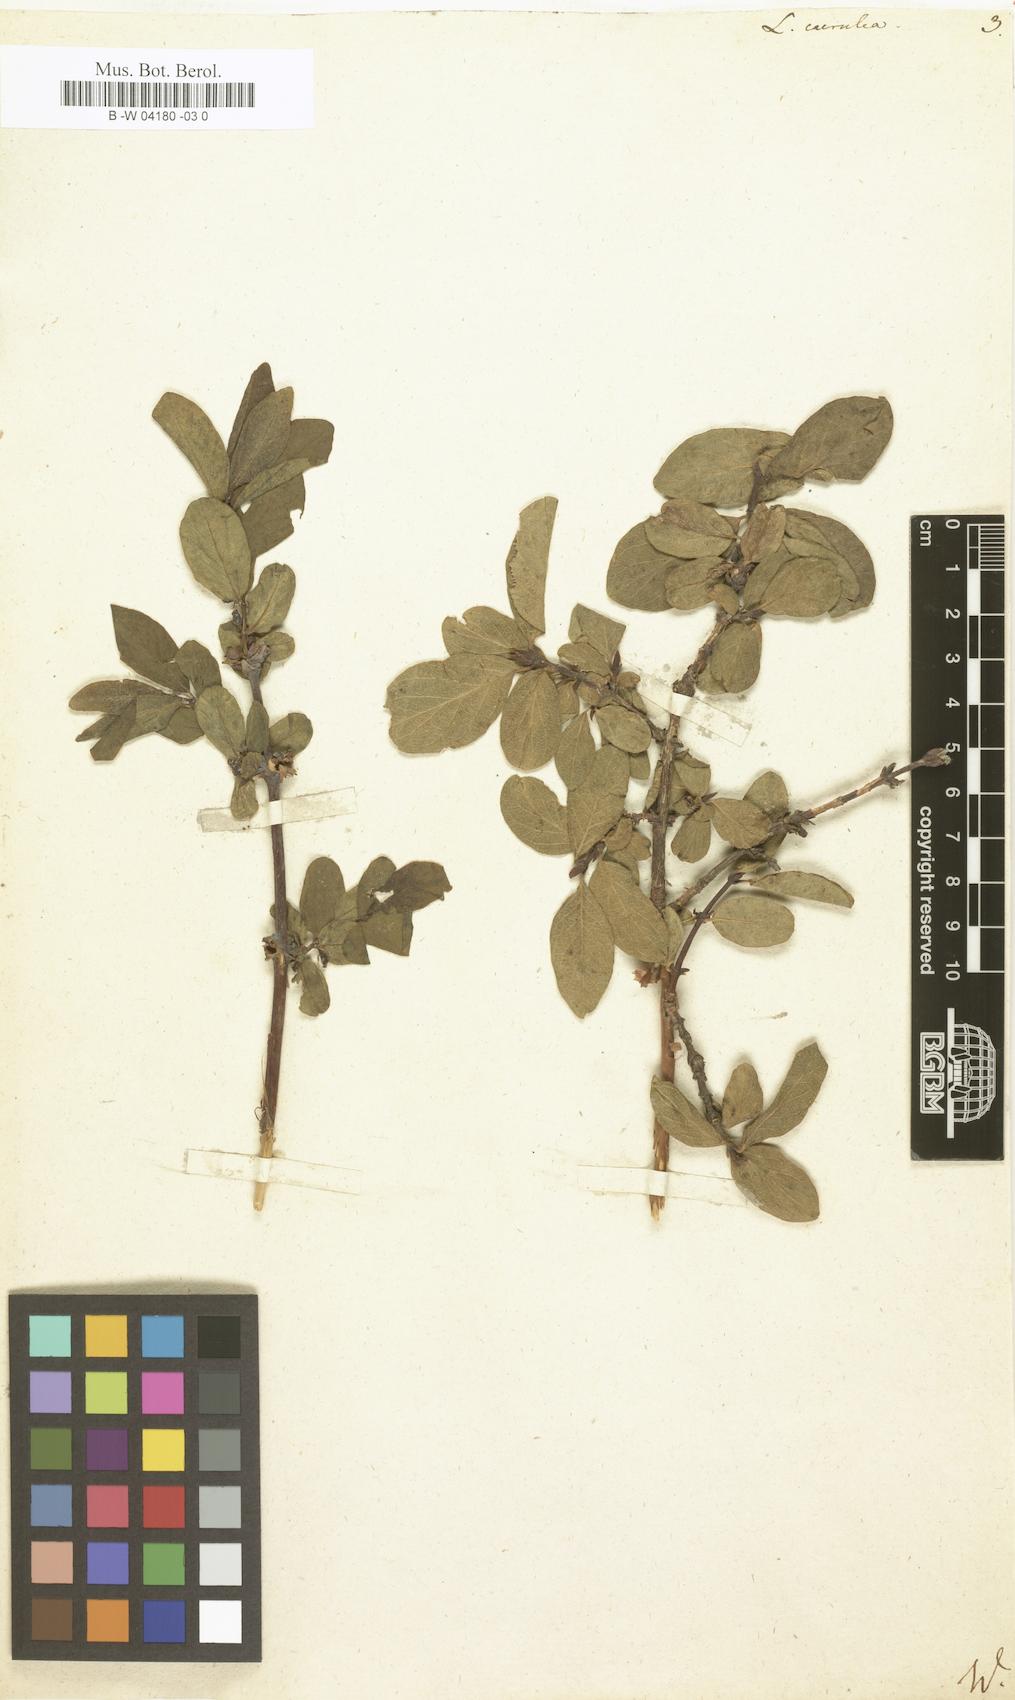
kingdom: Plantae
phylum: Tracheophyta
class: Magnoliopsida
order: Dipsacales
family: Caprifoliaceae
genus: Lonicera
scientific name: Lonicera caerulea
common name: Blue honeysuckle
